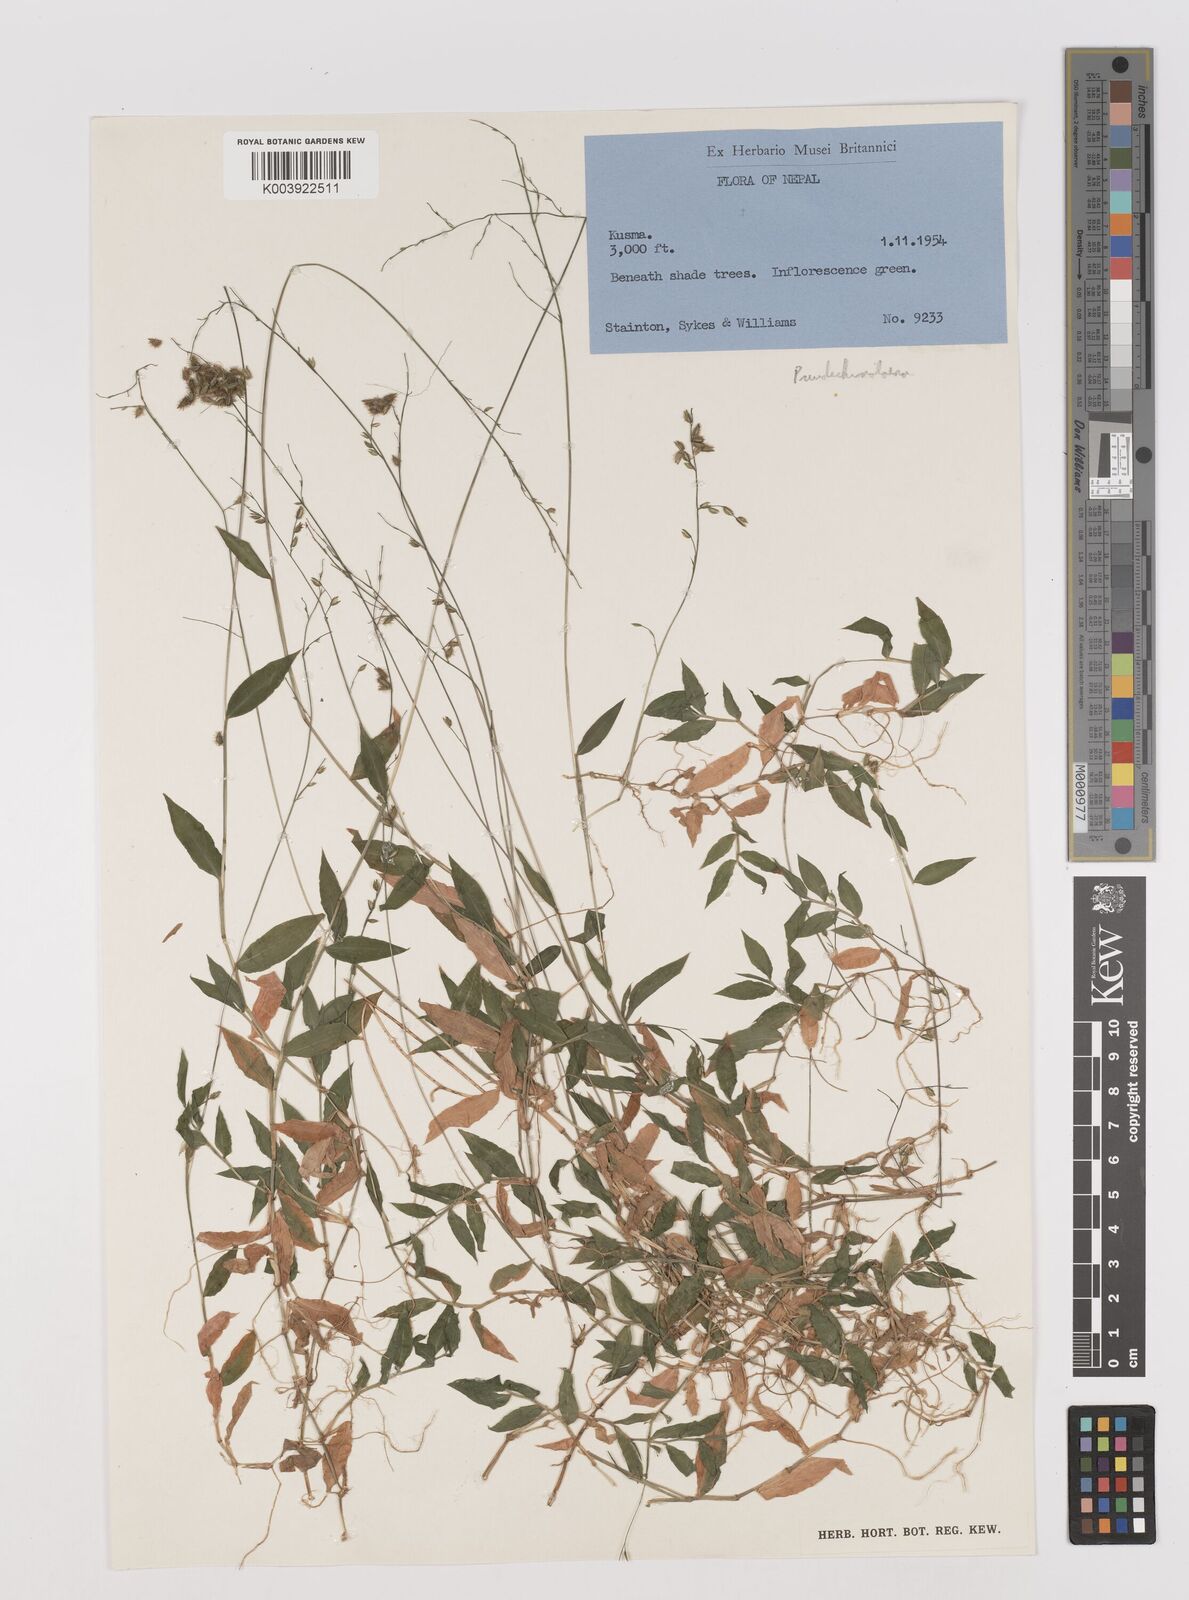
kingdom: Plantae
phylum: Tracheophyta
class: Liliopsida
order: Poales
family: Poaceae
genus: Pseudechinolaena
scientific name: Pseudechinolaena polystachya
